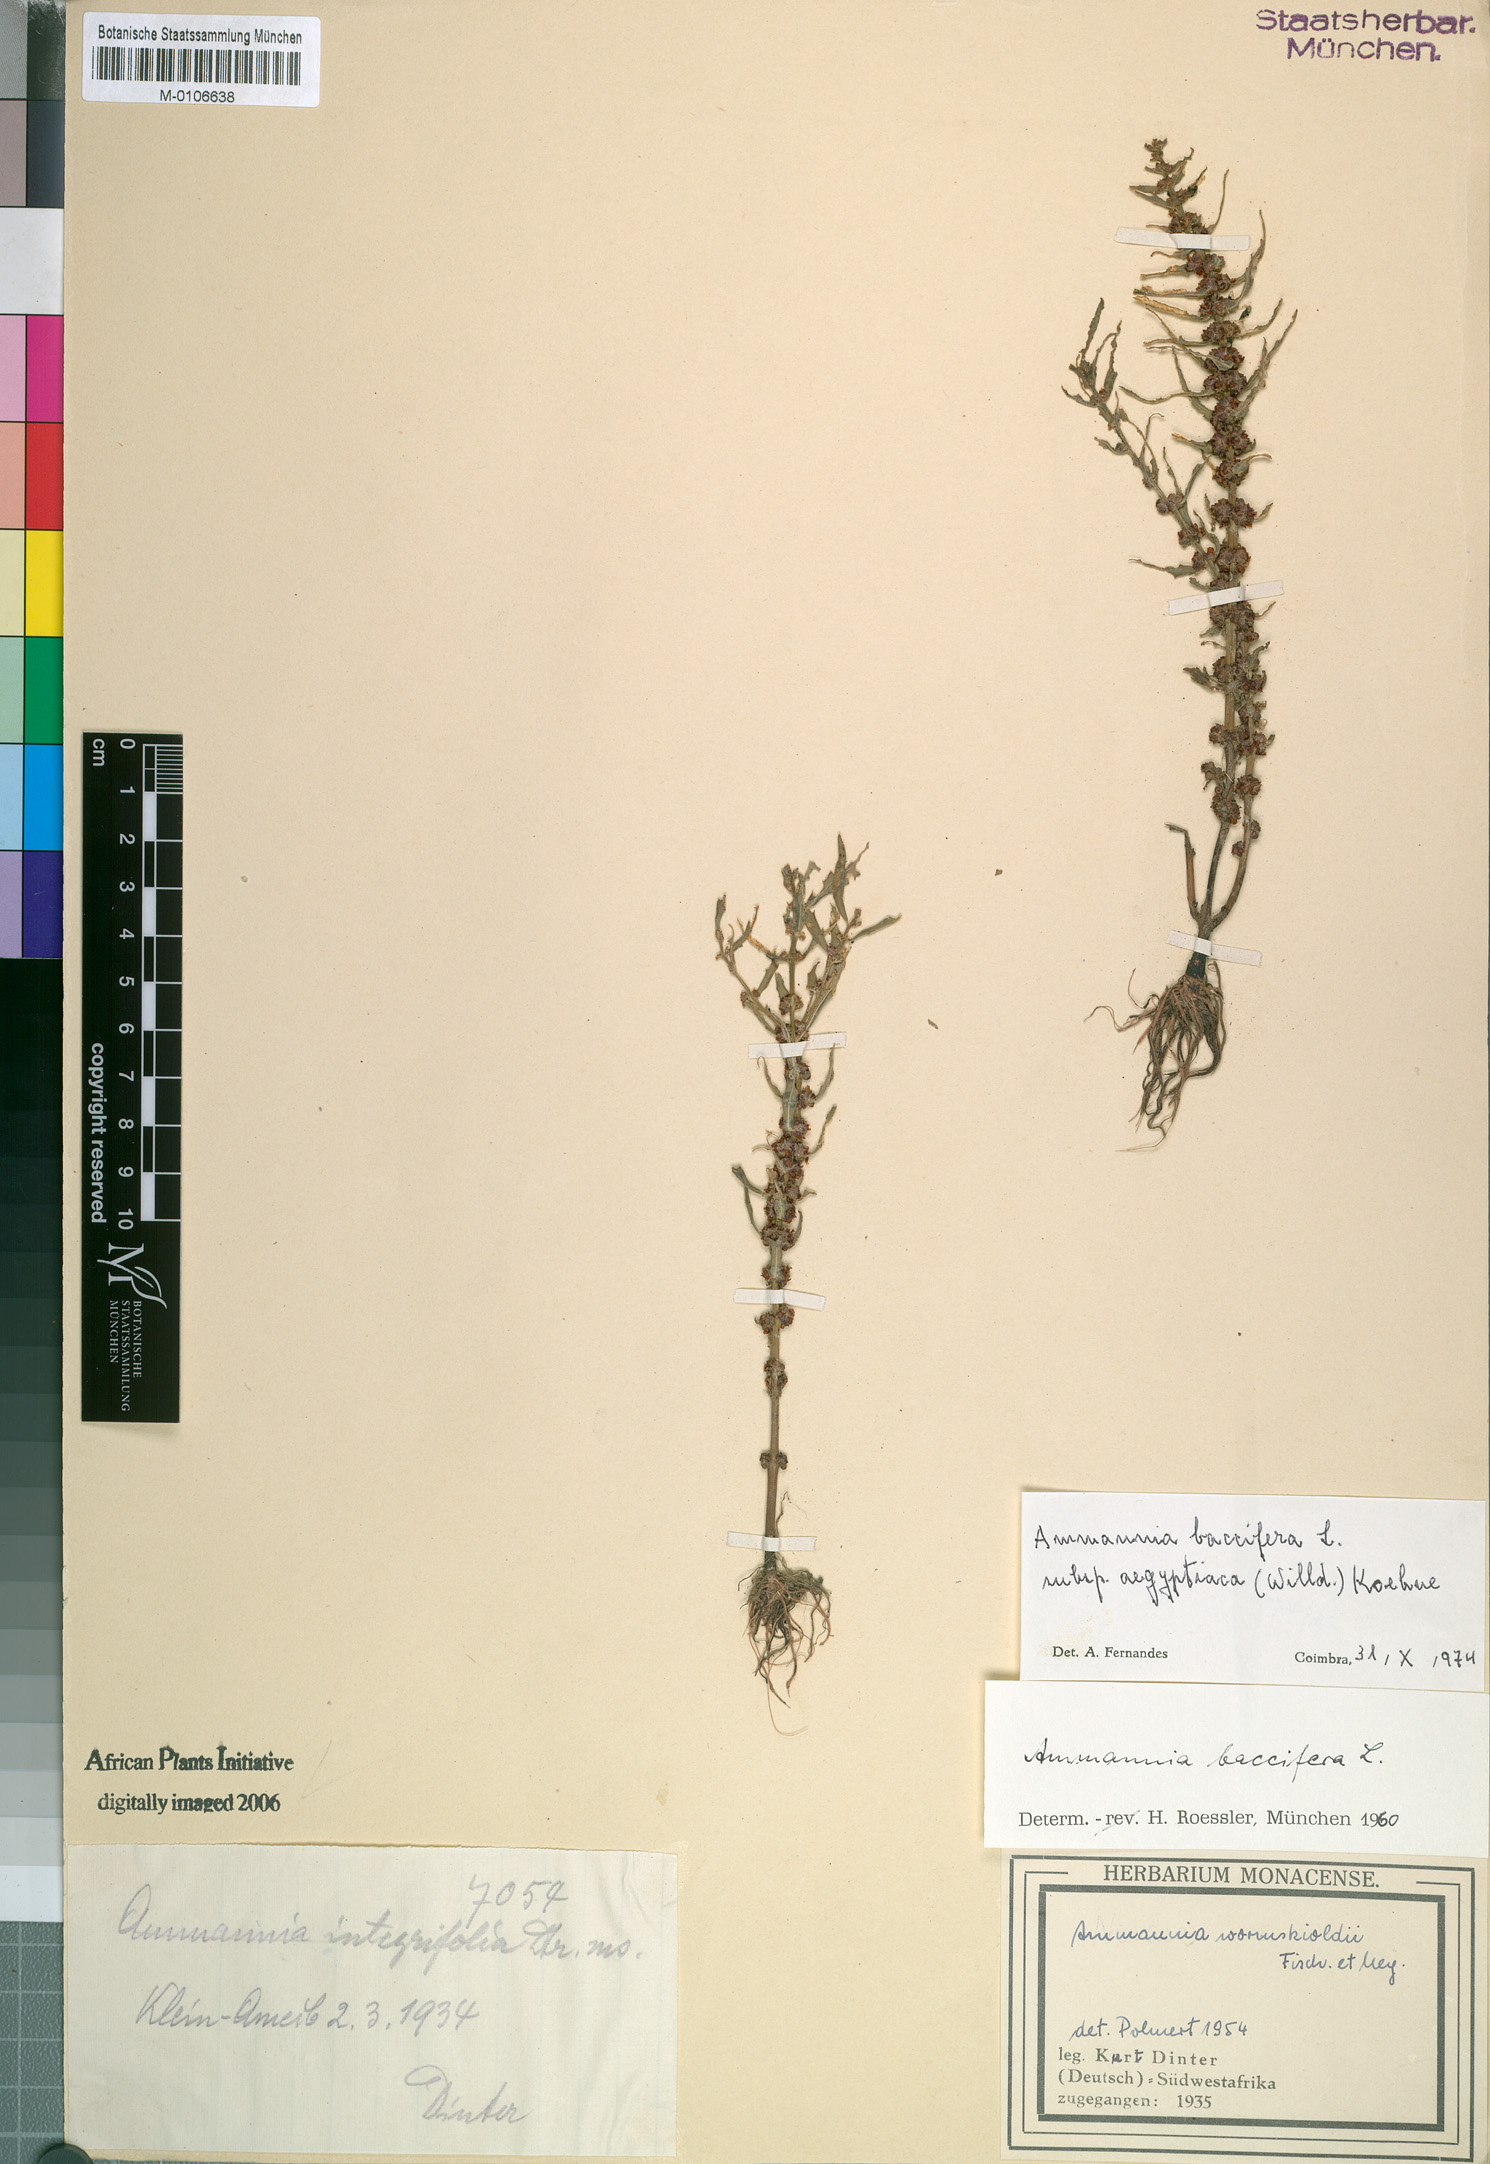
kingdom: Plantae
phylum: Tracheophyta
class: Magnoliopsida
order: Myrtales
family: Lythraceae
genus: Ammannia
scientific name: Ammannia baccifera
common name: Blistering ammania
